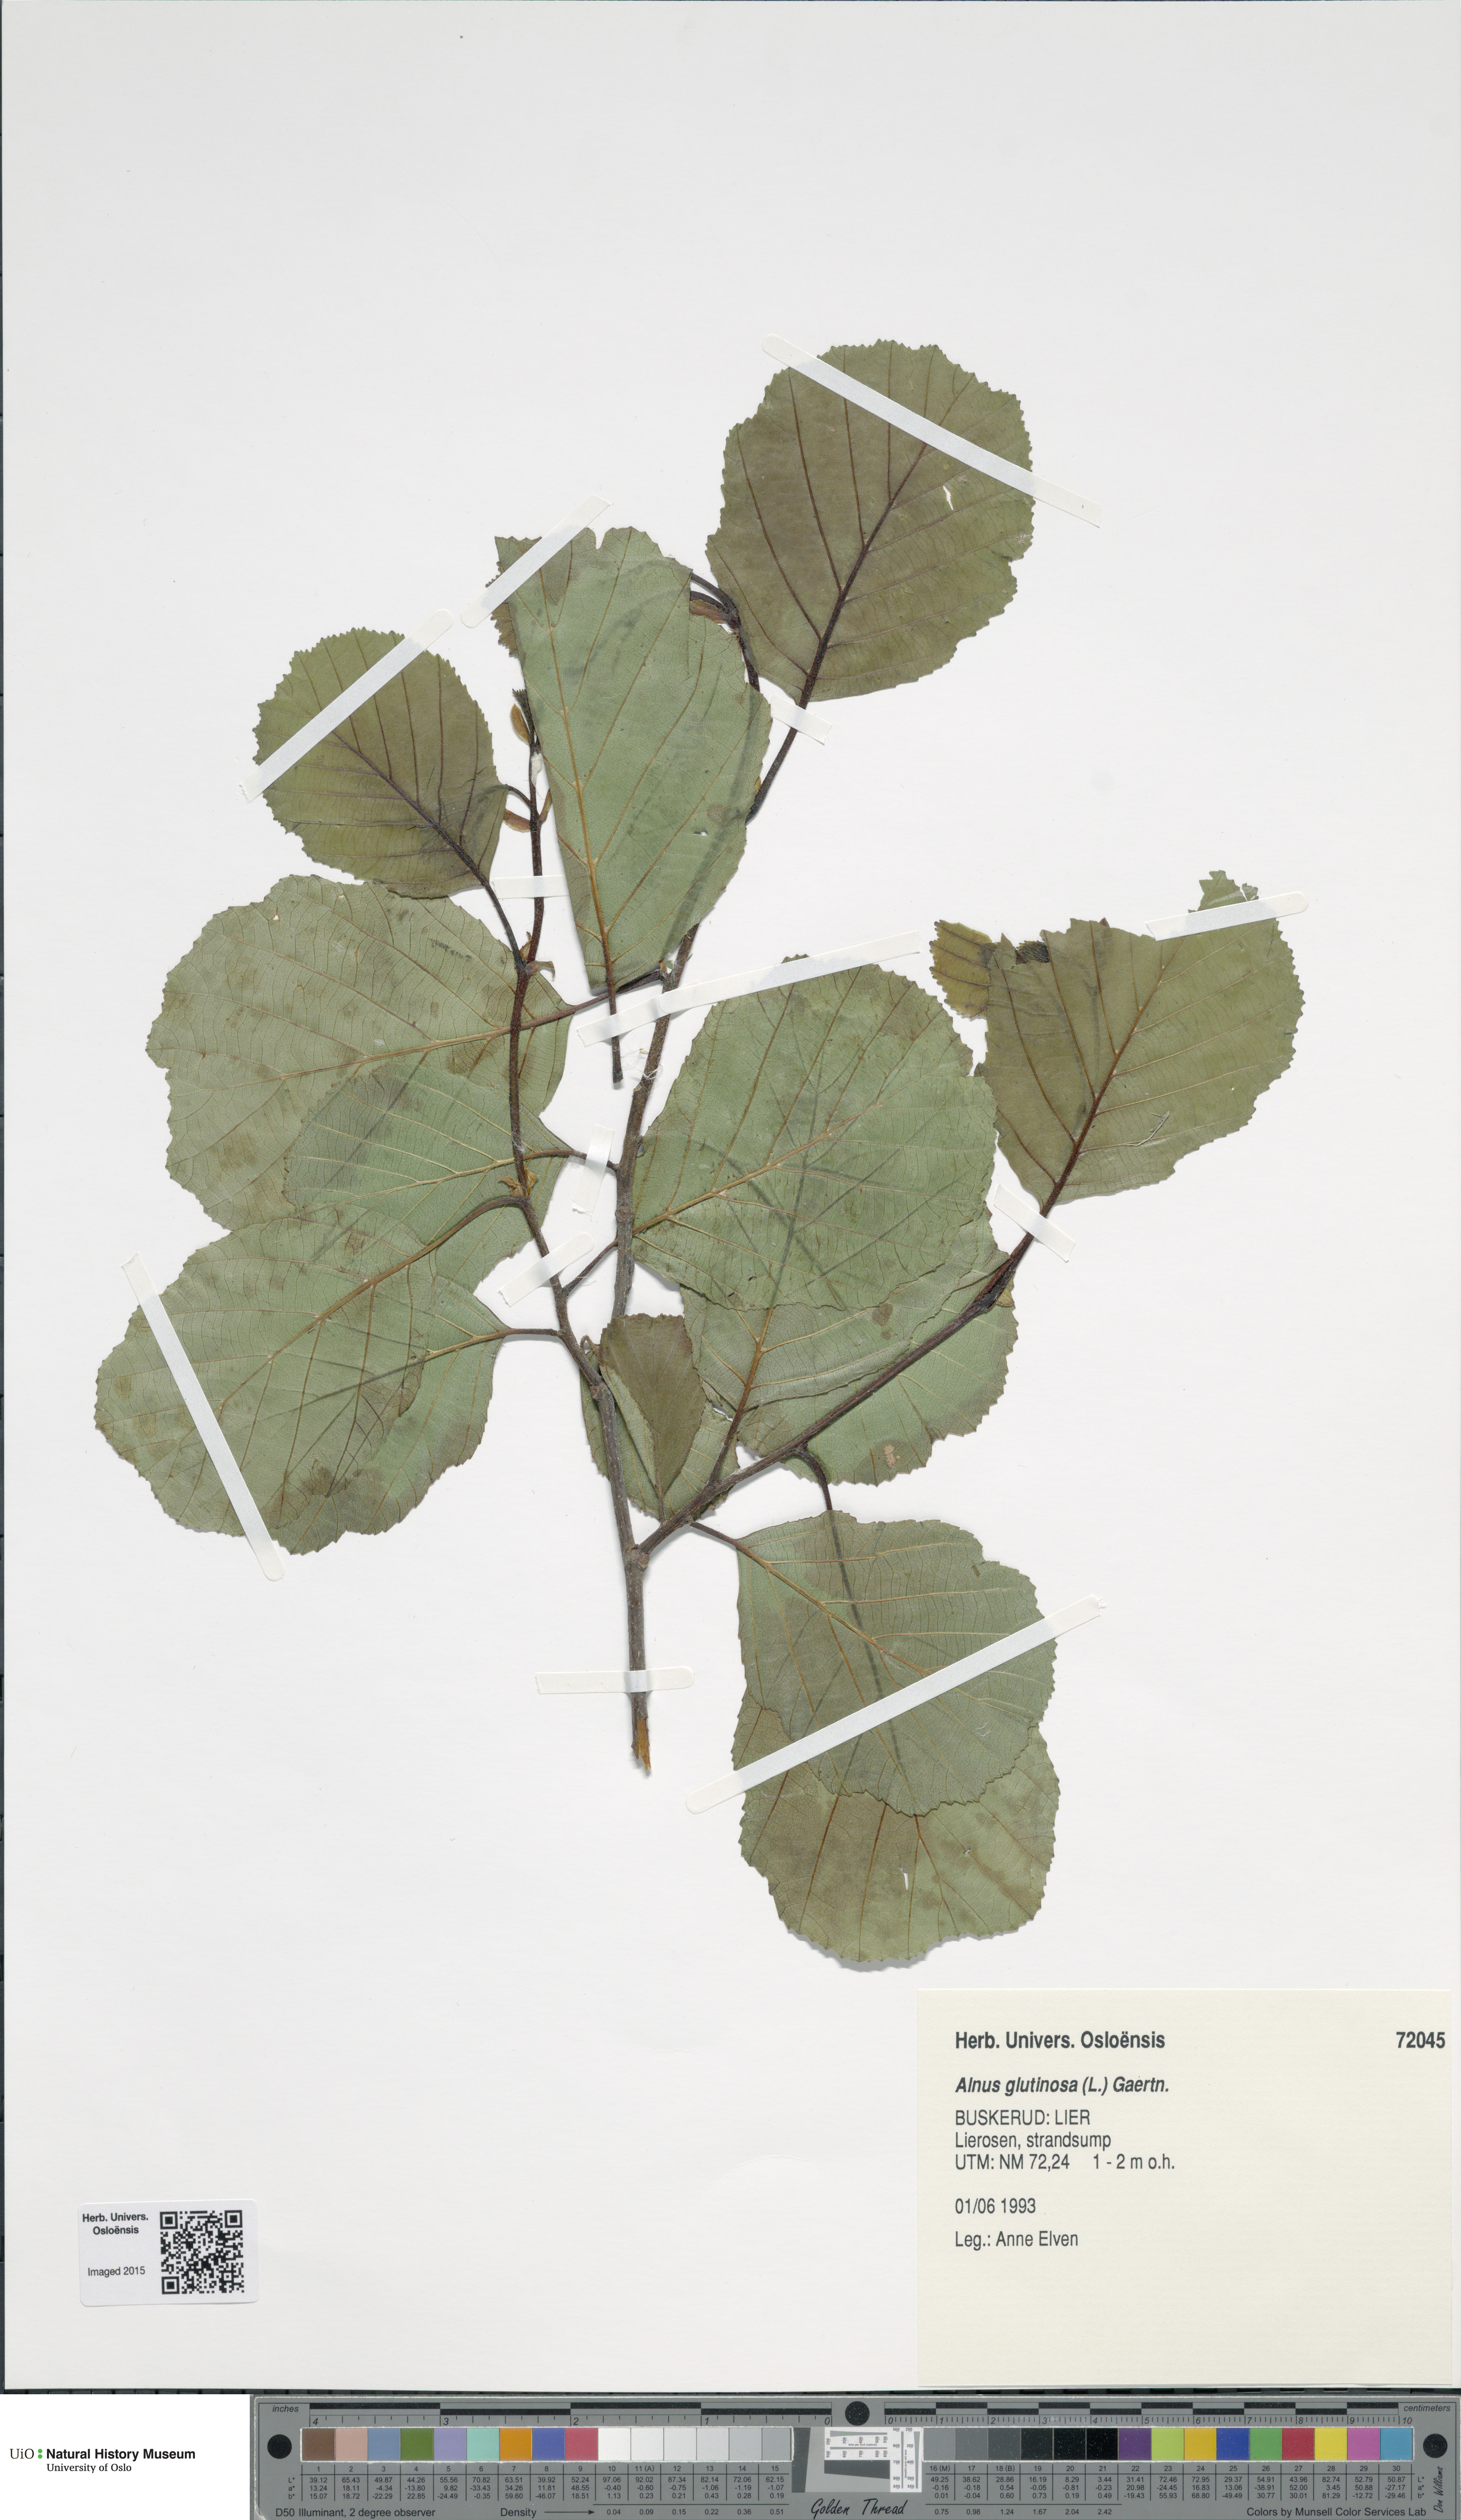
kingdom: Plantae
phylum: Tracheophyta
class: Magnoliopsida
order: Fagales
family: Betulaceae
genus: Alnus
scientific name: Alnus glutinosa
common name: Black alder
